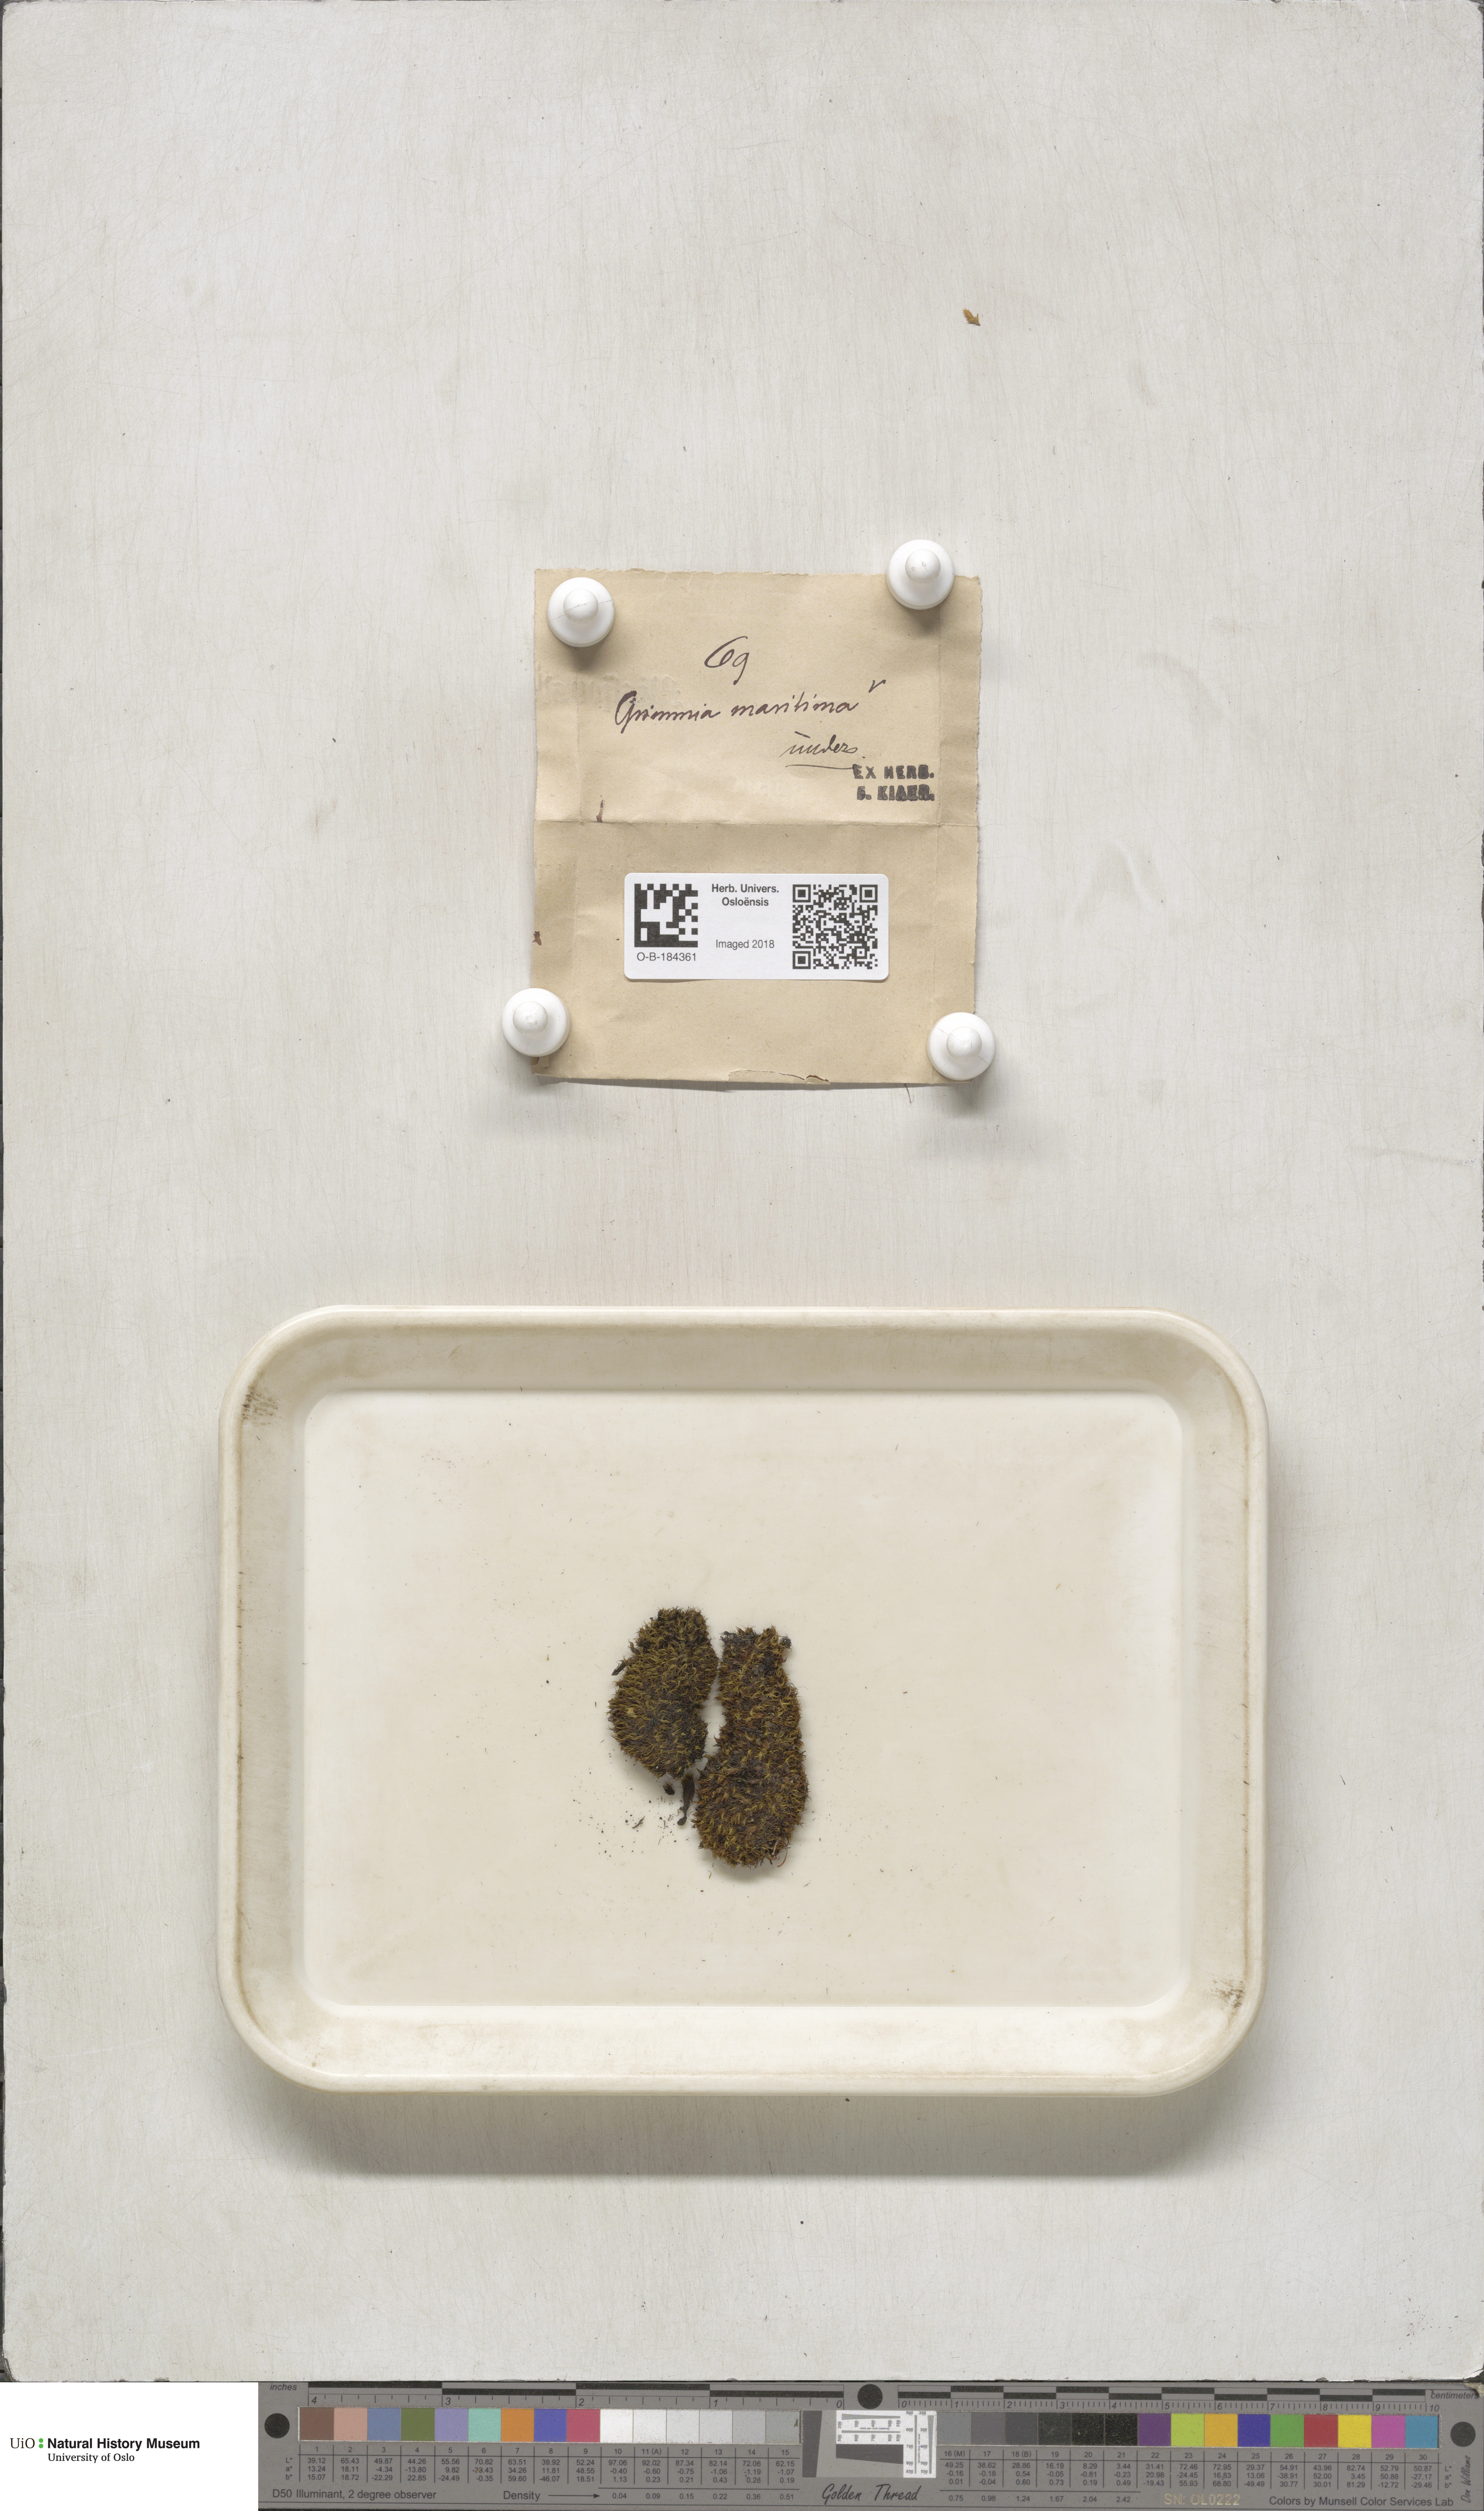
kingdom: Plantae
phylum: Bryophyta
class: Bryopsida
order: Grimmiales
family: Grimmiaceae
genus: Schistidium
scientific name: Schistidium maritimum
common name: Seaside bloom moss
